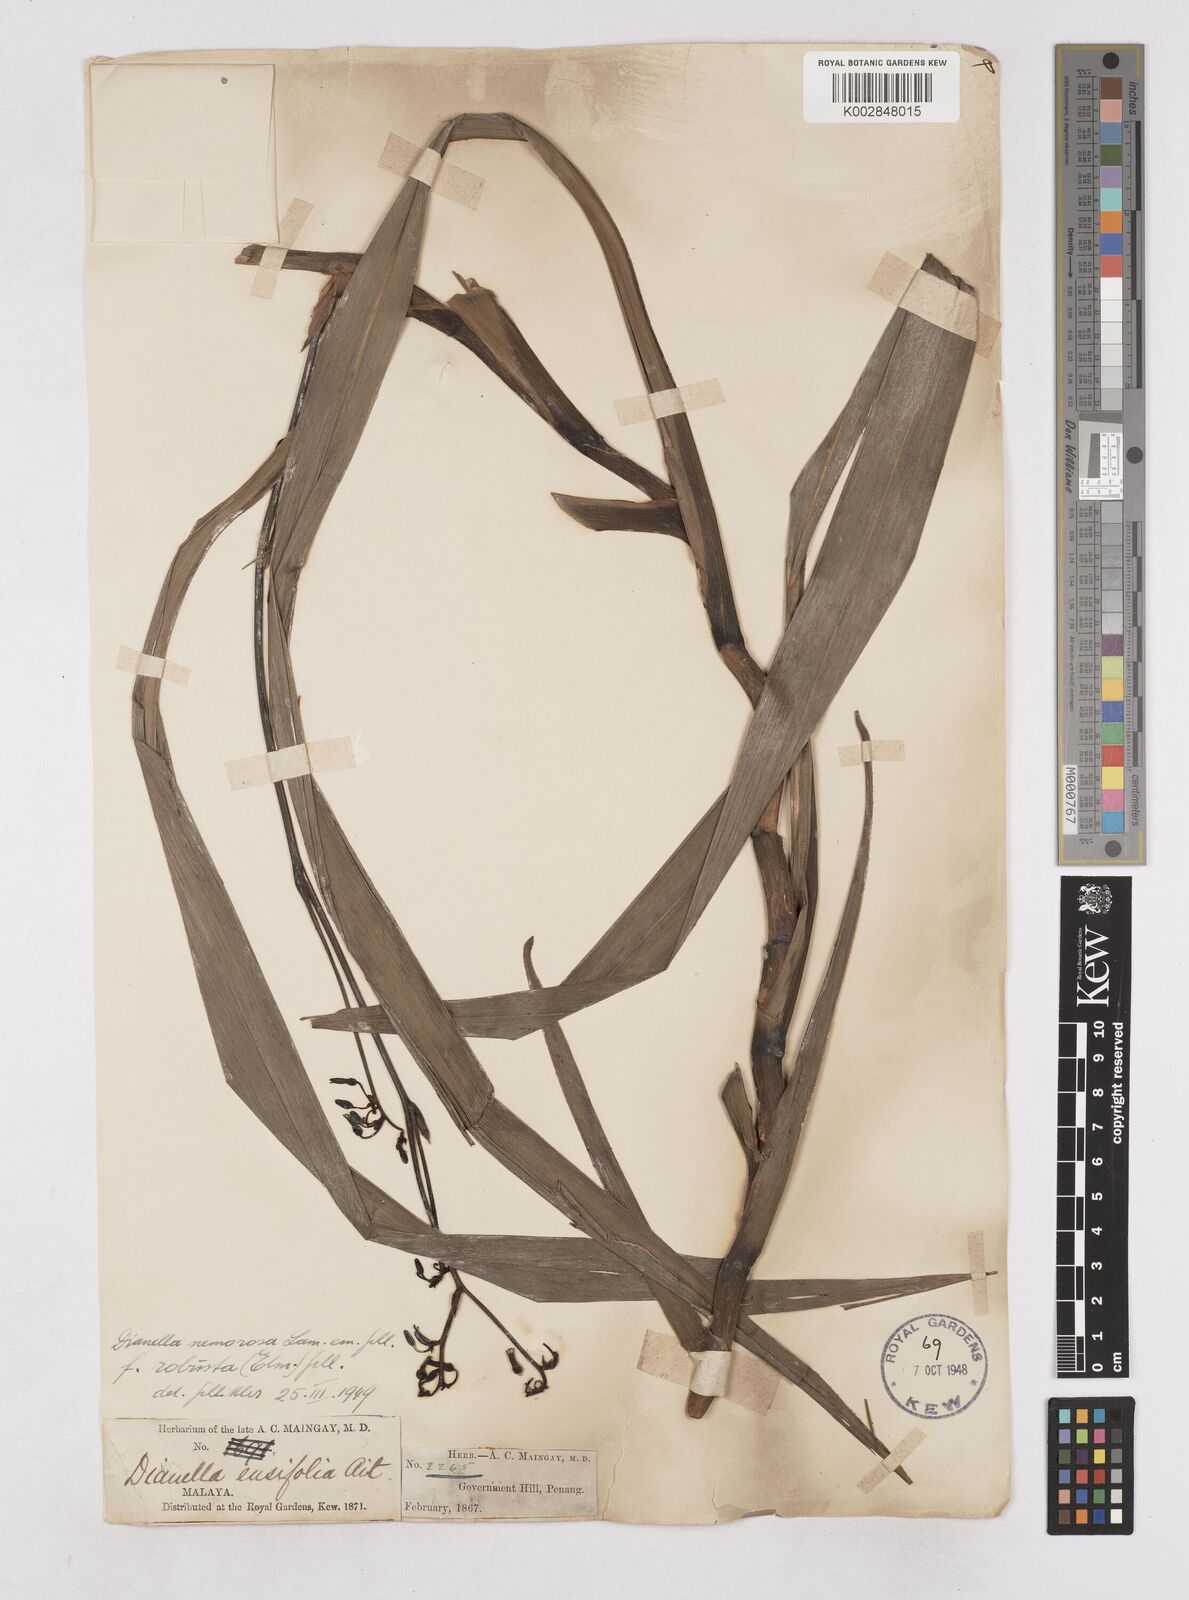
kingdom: Plantae
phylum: Tracheophyta
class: Liliopsida
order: Asparagales
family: Asphodelaceae
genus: Dianella
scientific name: Dianella ensifolia
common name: New zealand lilyplant
